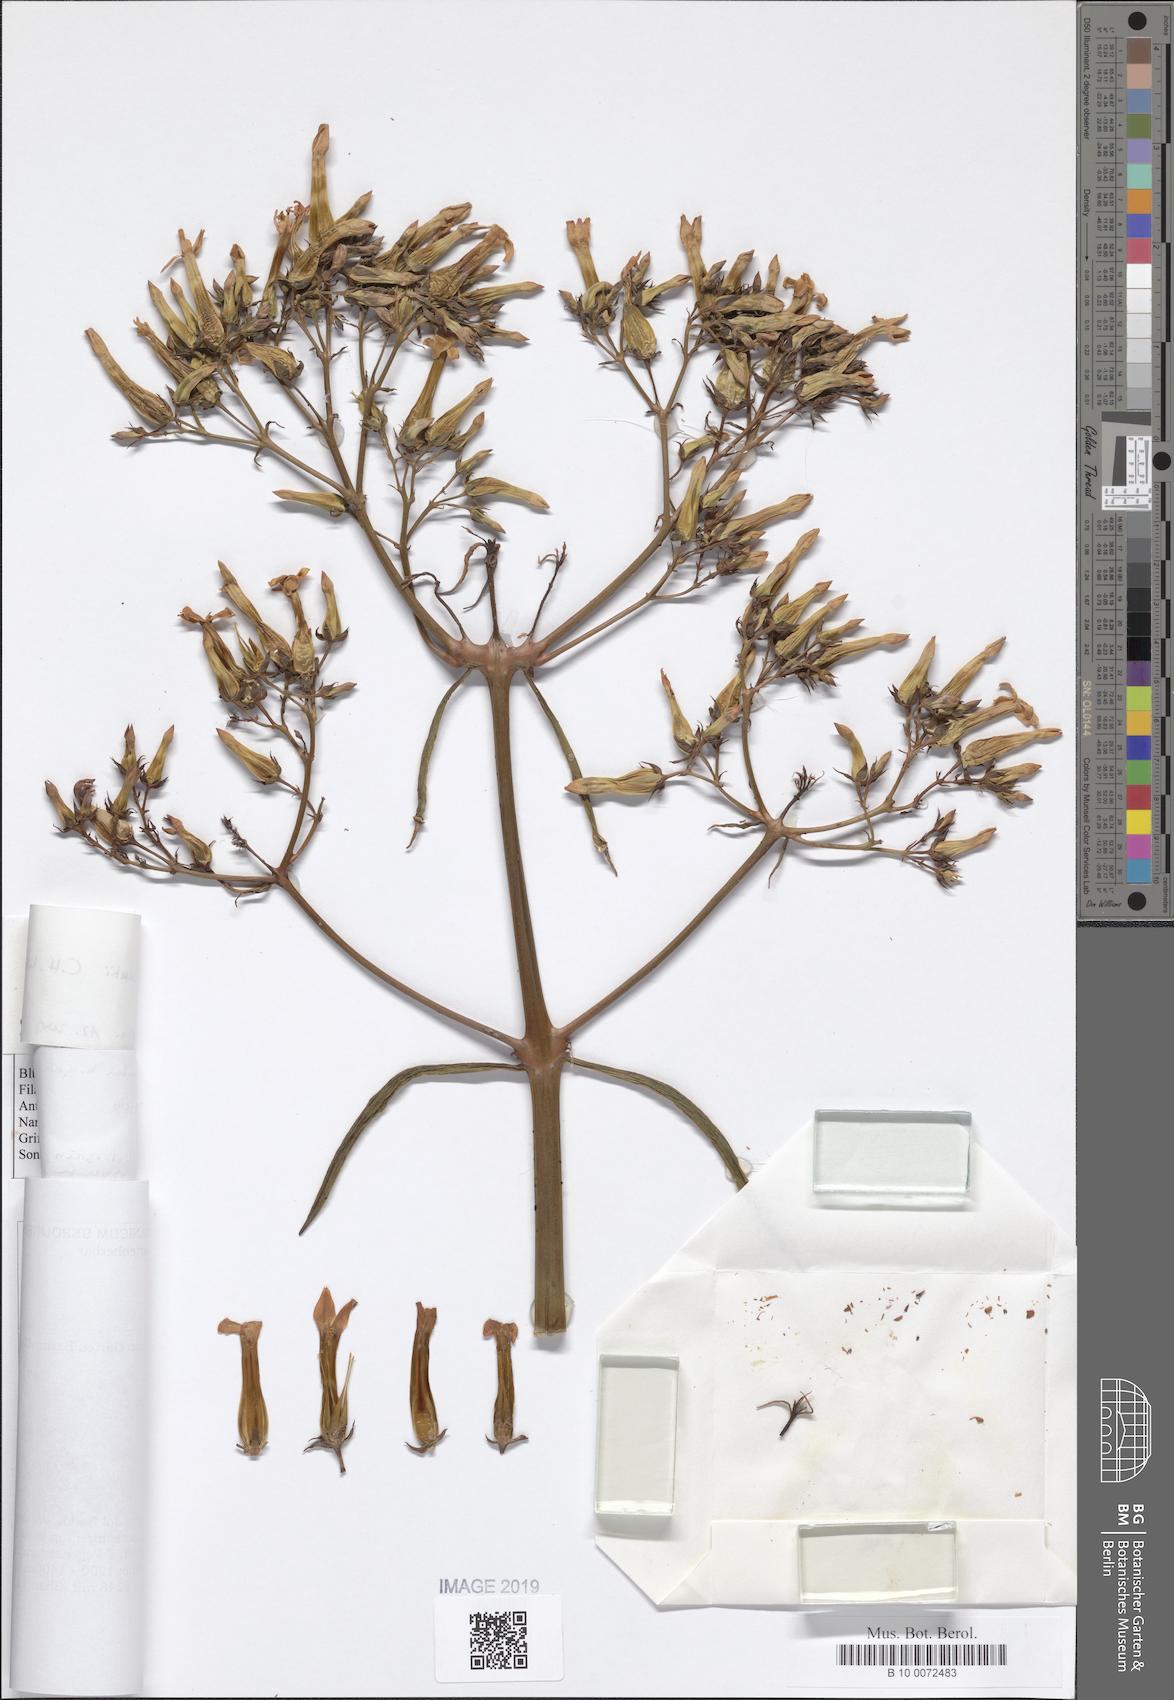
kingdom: Plantae
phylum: Tracheophyta
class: Magnoliopsida
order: Saxifragales
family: Crassulaceae
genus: Kalanchoe
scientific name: Kalanchoe bentii
